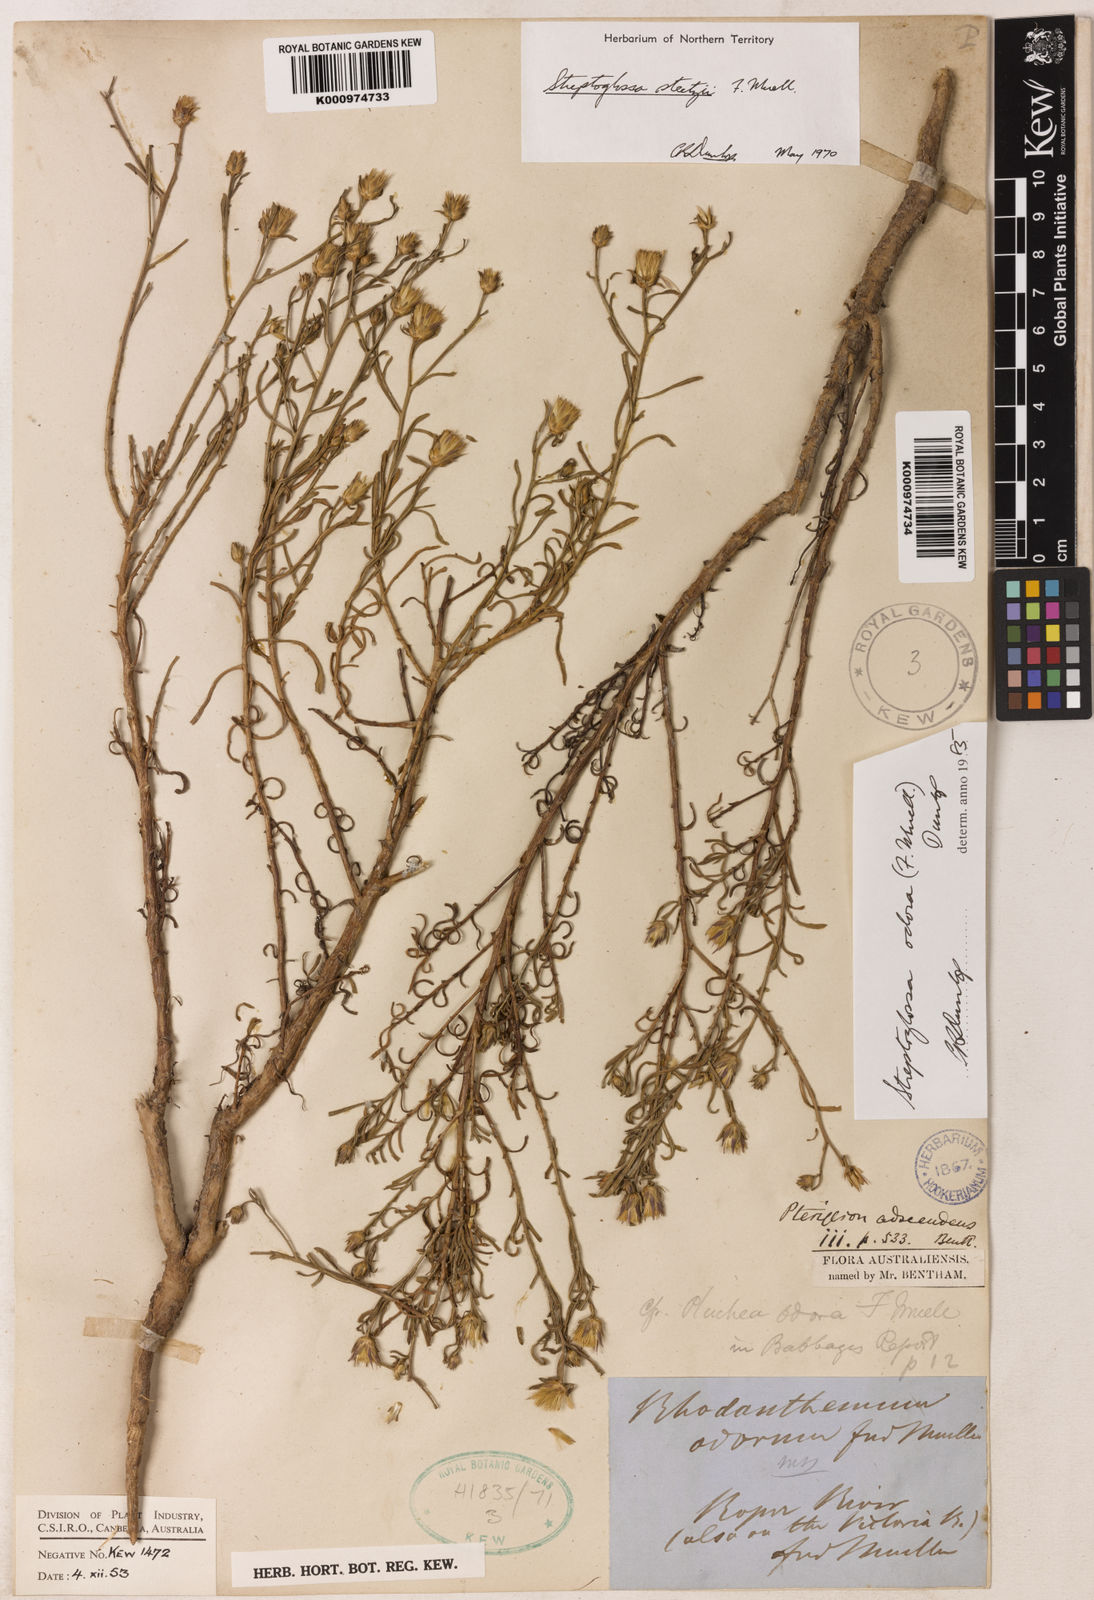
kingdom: Plantae
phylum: Tracheophyta
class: Magnoliopsida
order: Asterales
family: Asteraceae
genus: Streptoglossa
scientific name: Streptoglossa odora
